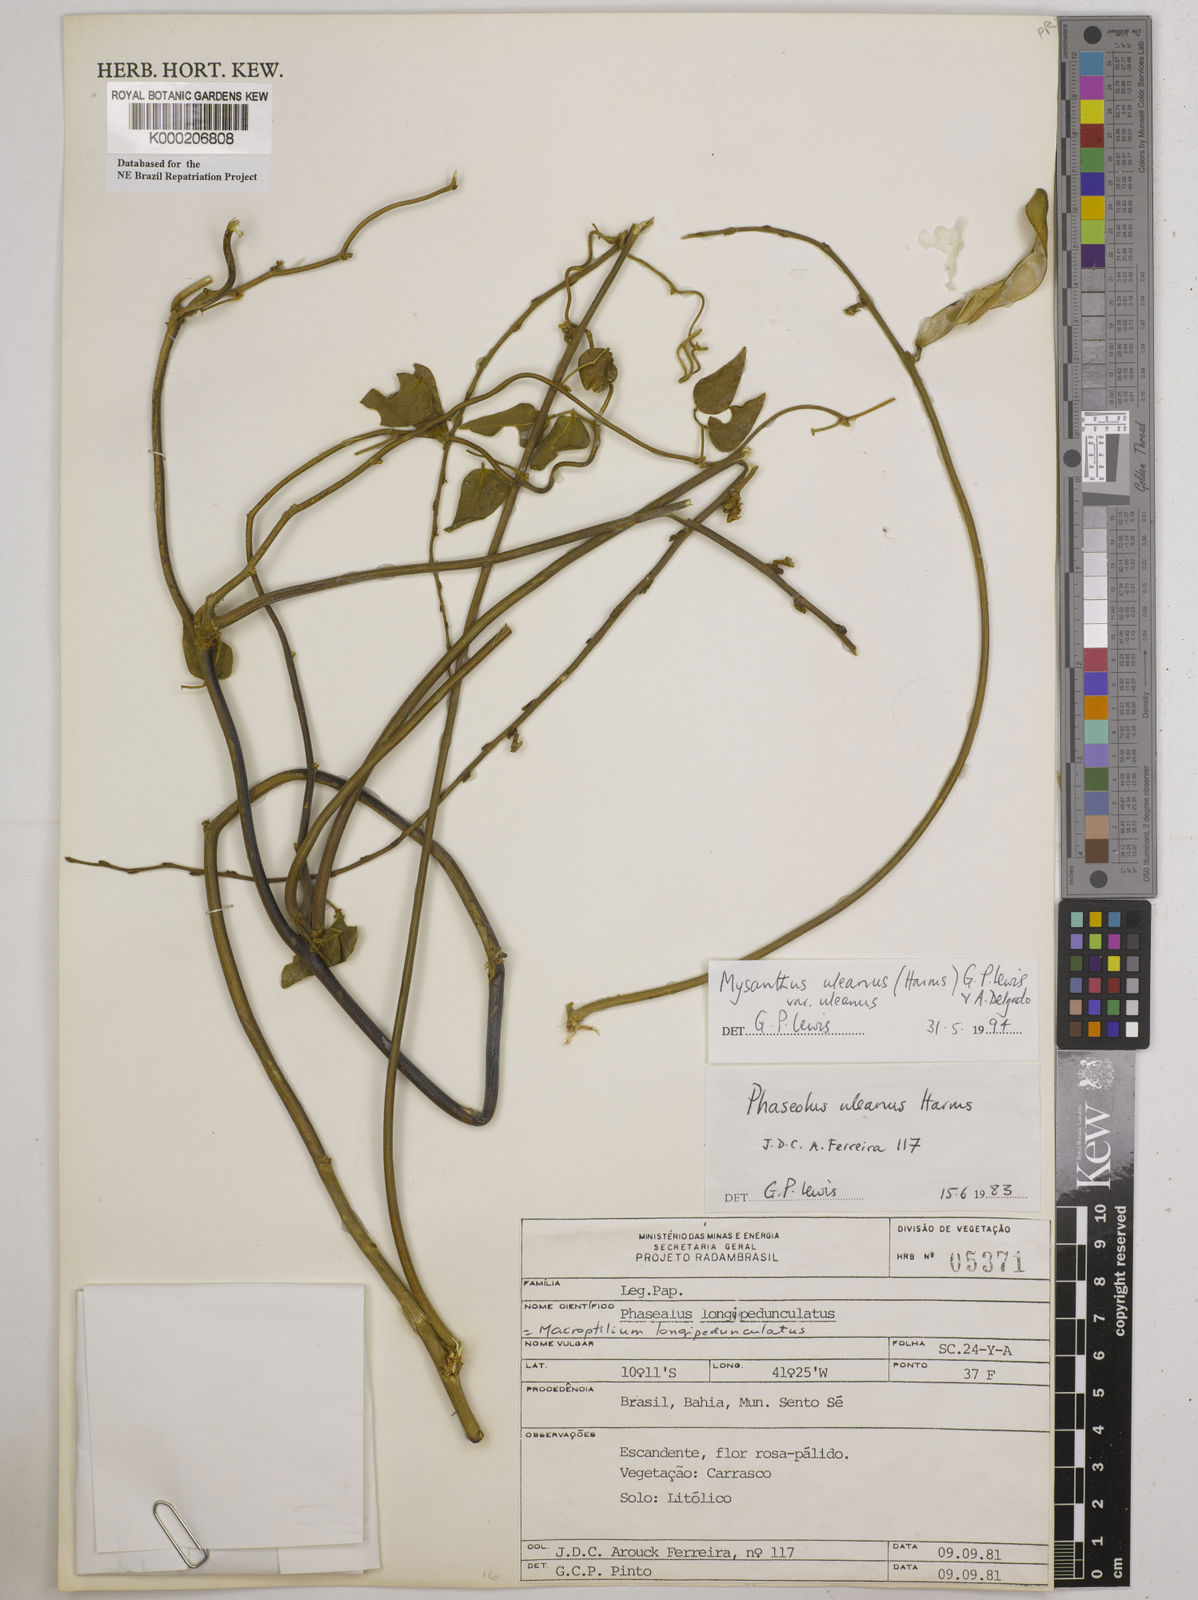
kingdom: Plantae
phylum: Tracheophyta
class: Magnoliopsida
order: Fabales
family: Fabaceae
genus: Mysanthus
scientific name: Mysanthus uleanus
